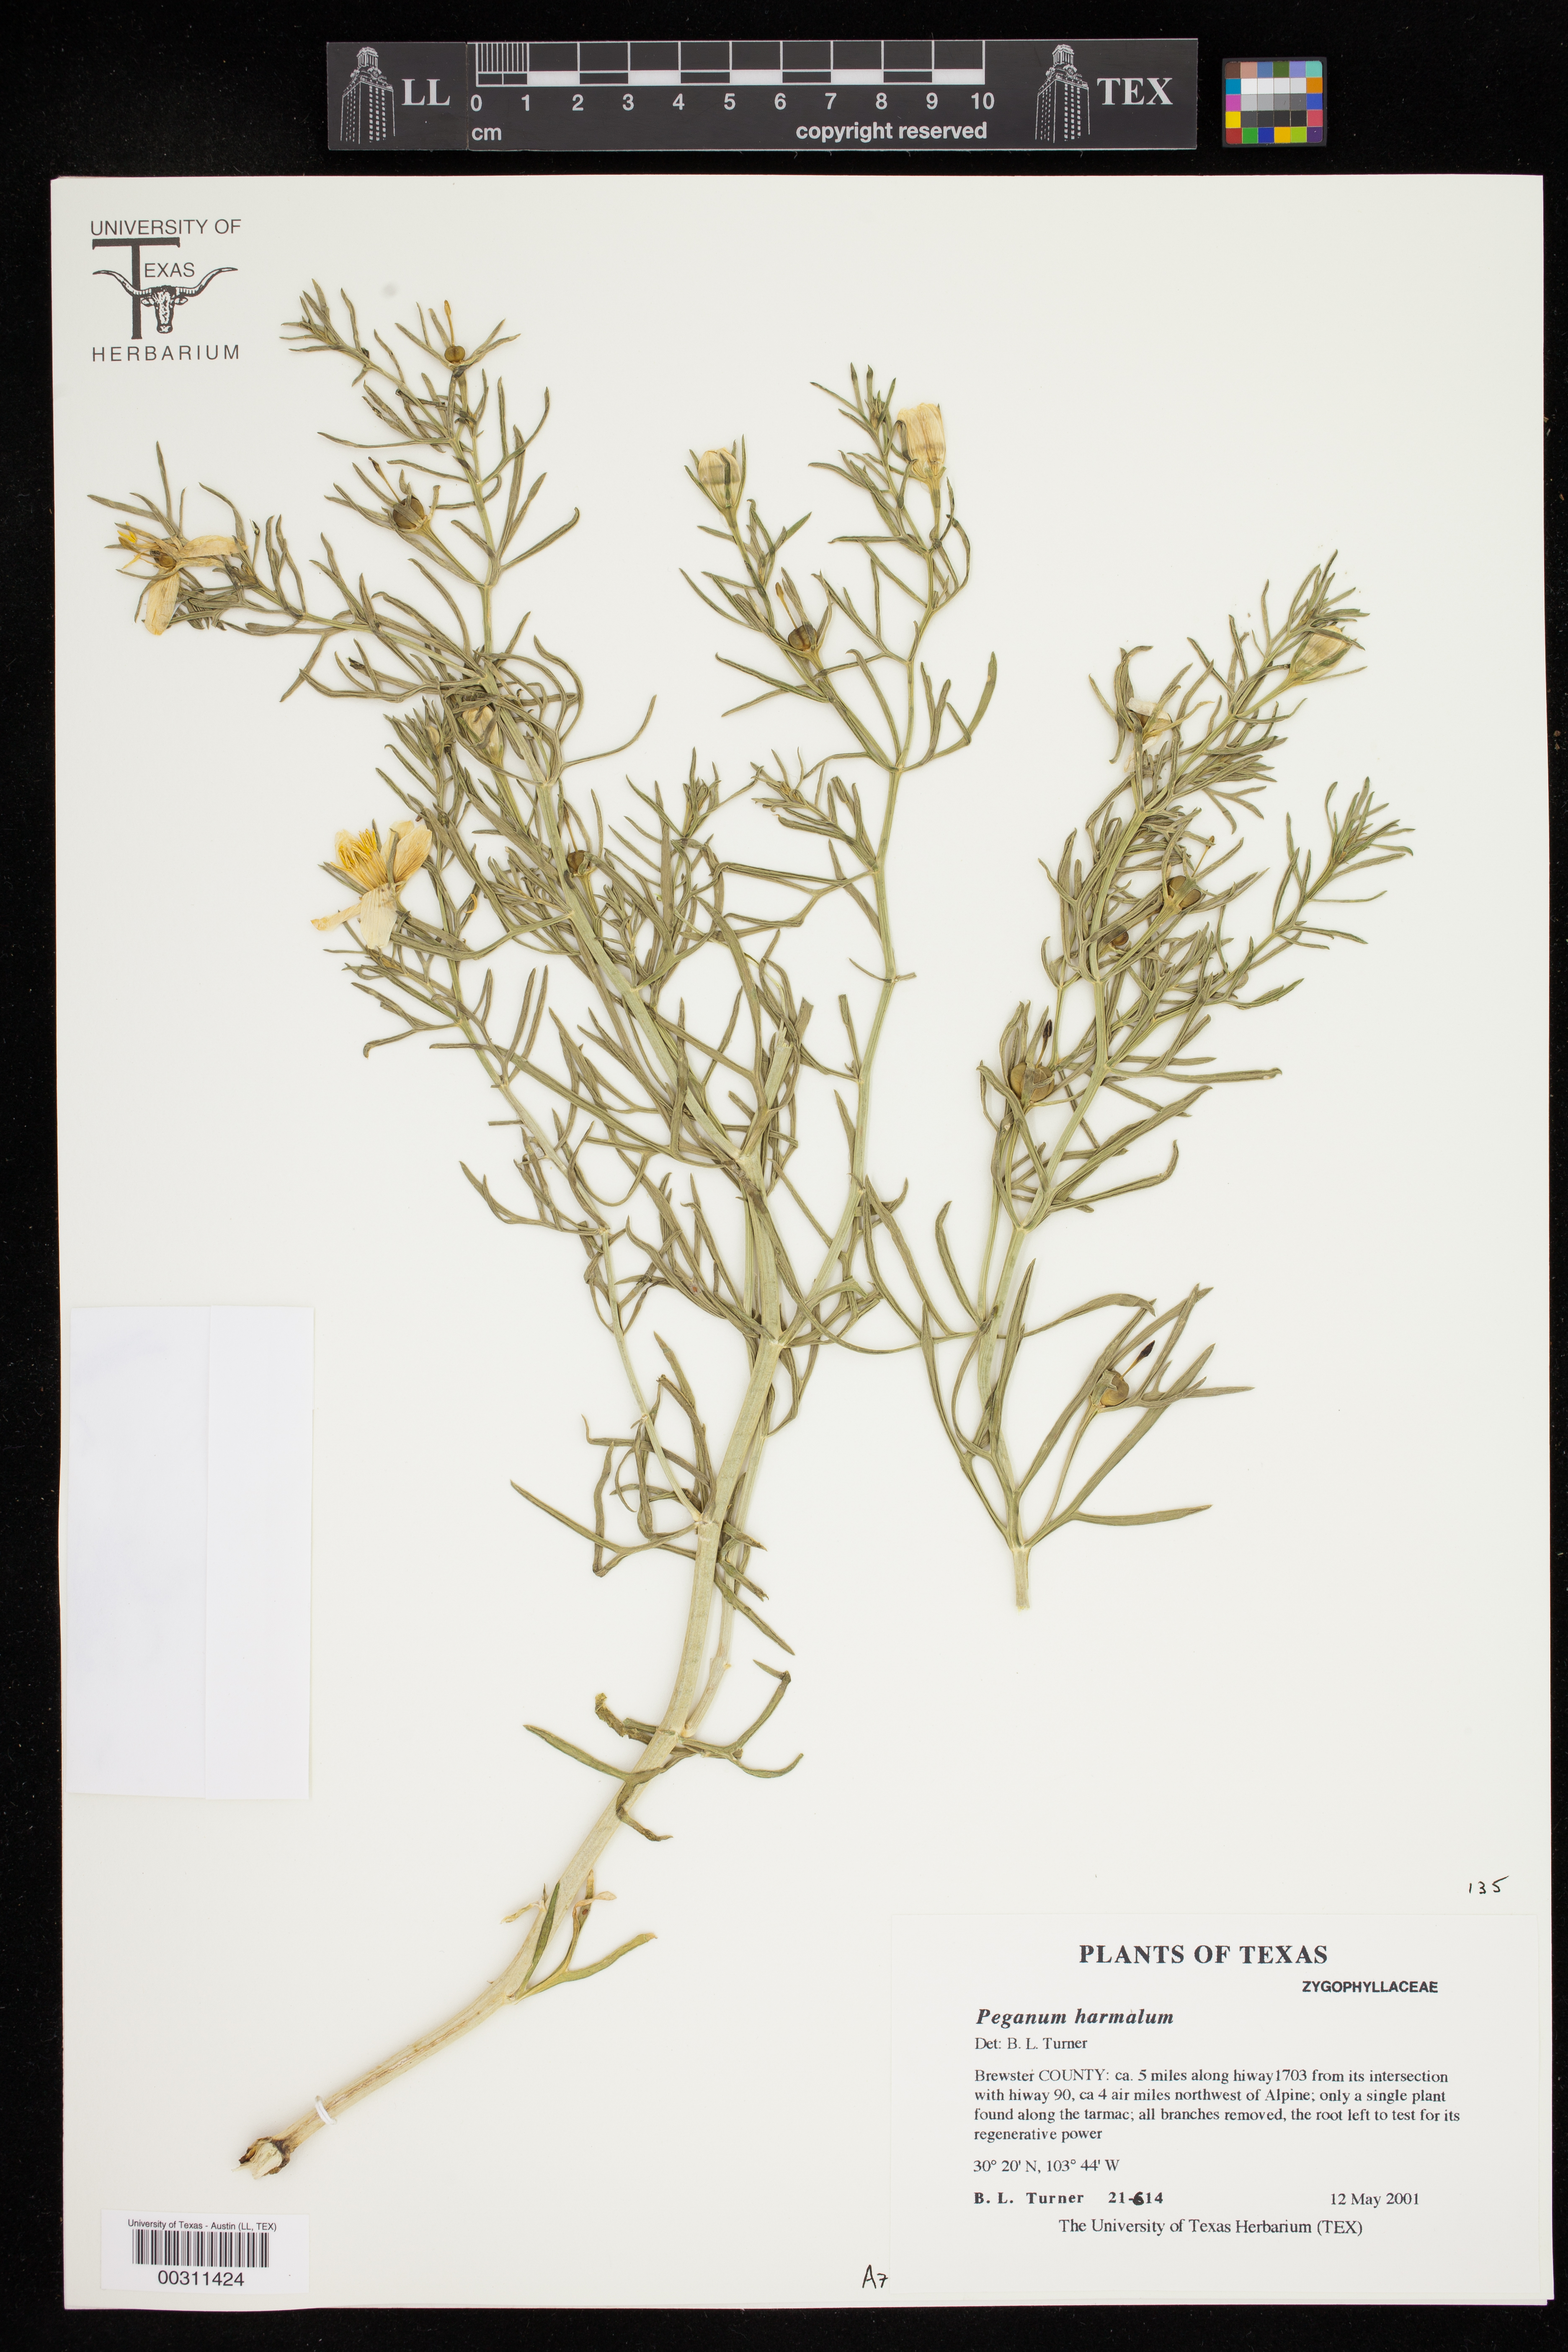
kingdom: Plantae
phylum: Tracheophyta
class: Magnoliopsida
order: Sapindales
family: Tetradiclidaceae
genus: Peganum
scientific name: Peganum harmala
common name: Harmal peganum
